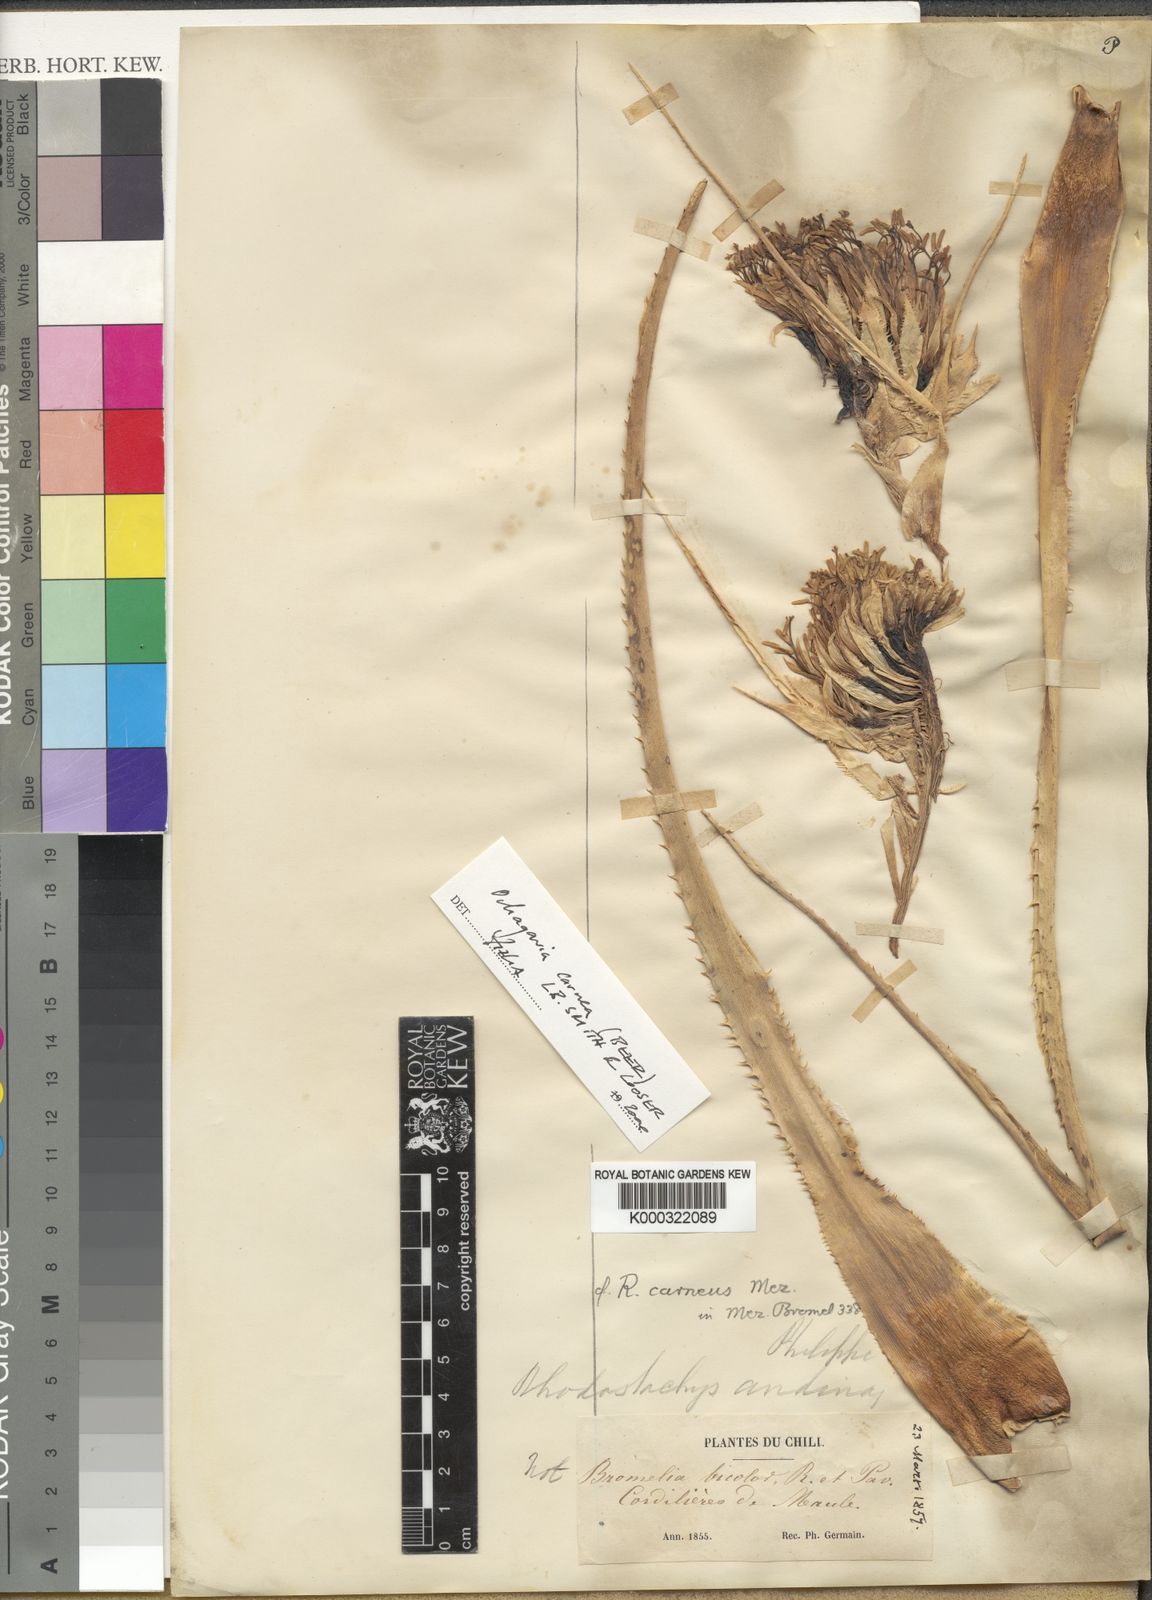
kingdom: Plantae
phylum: Tracheophyta
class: Liliopsida
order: Poales
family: Bromeliaceae
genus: Ochagavia
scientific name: Ochagavia carnea
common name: Tresco rhodostachys
